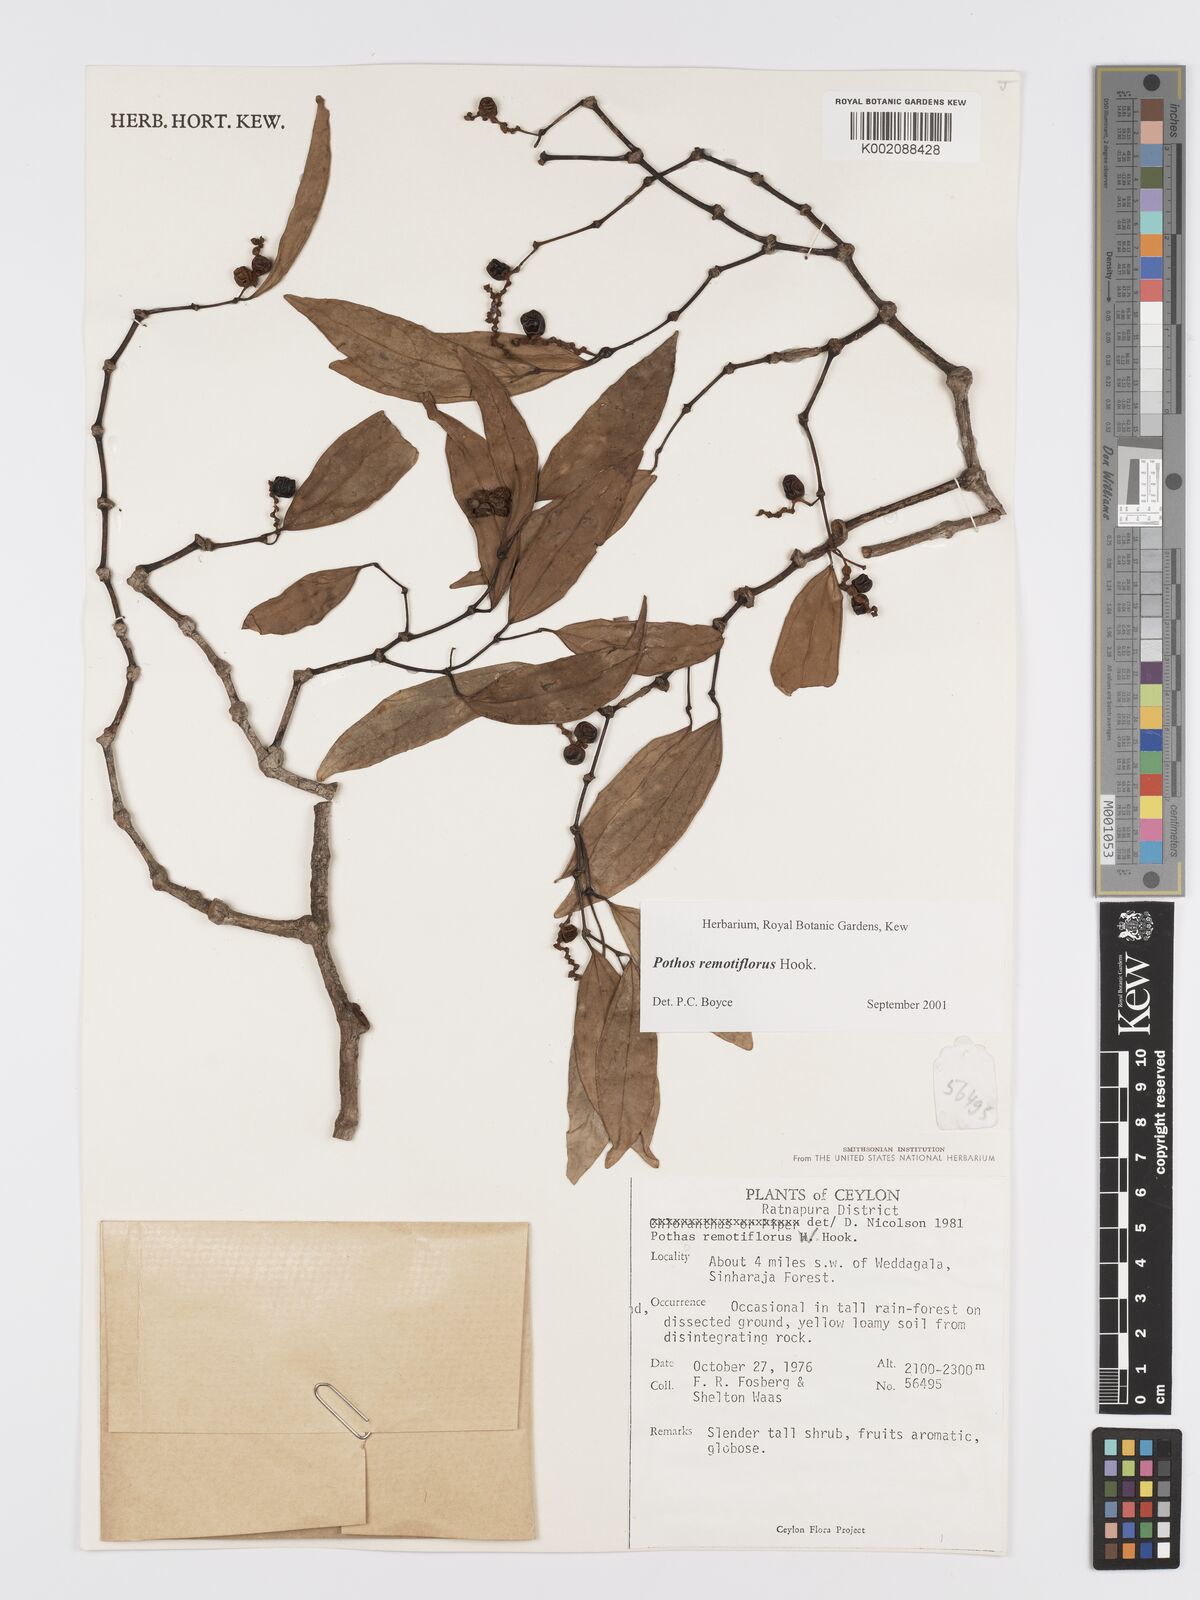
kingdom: Plantae
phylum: Tracheophyta
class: Liliopsida
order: Alismatales
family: Araceae
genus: Pothos
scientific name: Pothos remotiflorus
